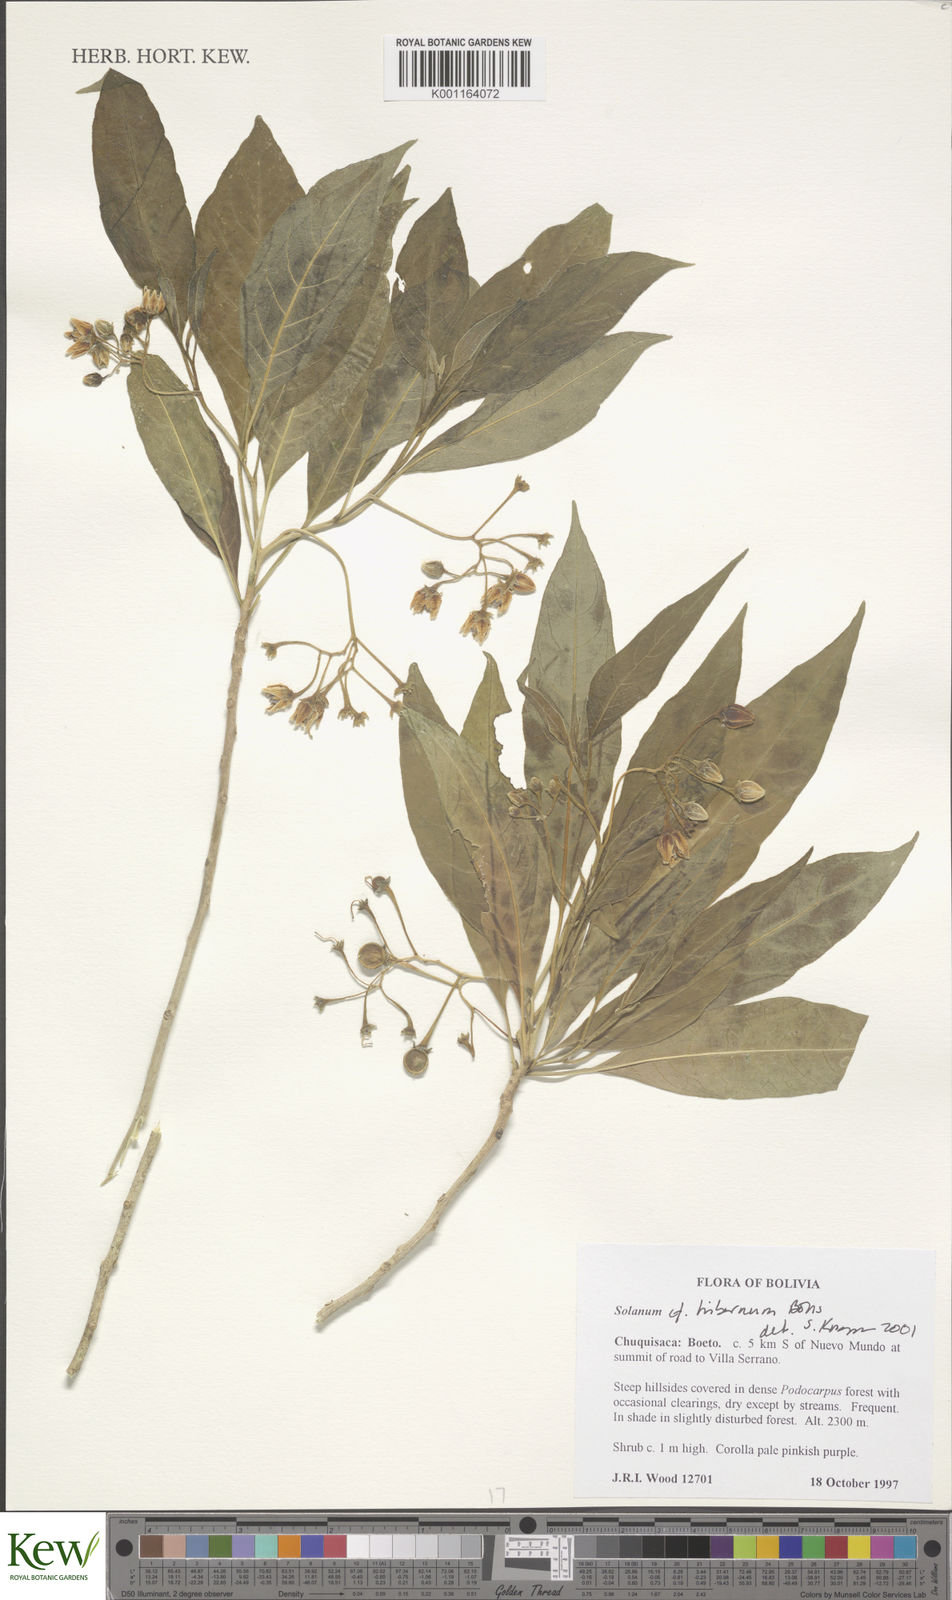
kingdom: Plantae
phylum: Tracheophyta
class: Magnoliopsida
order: Solanales
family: Solanaceae
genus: Solanum
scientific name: Solanum hibernum
